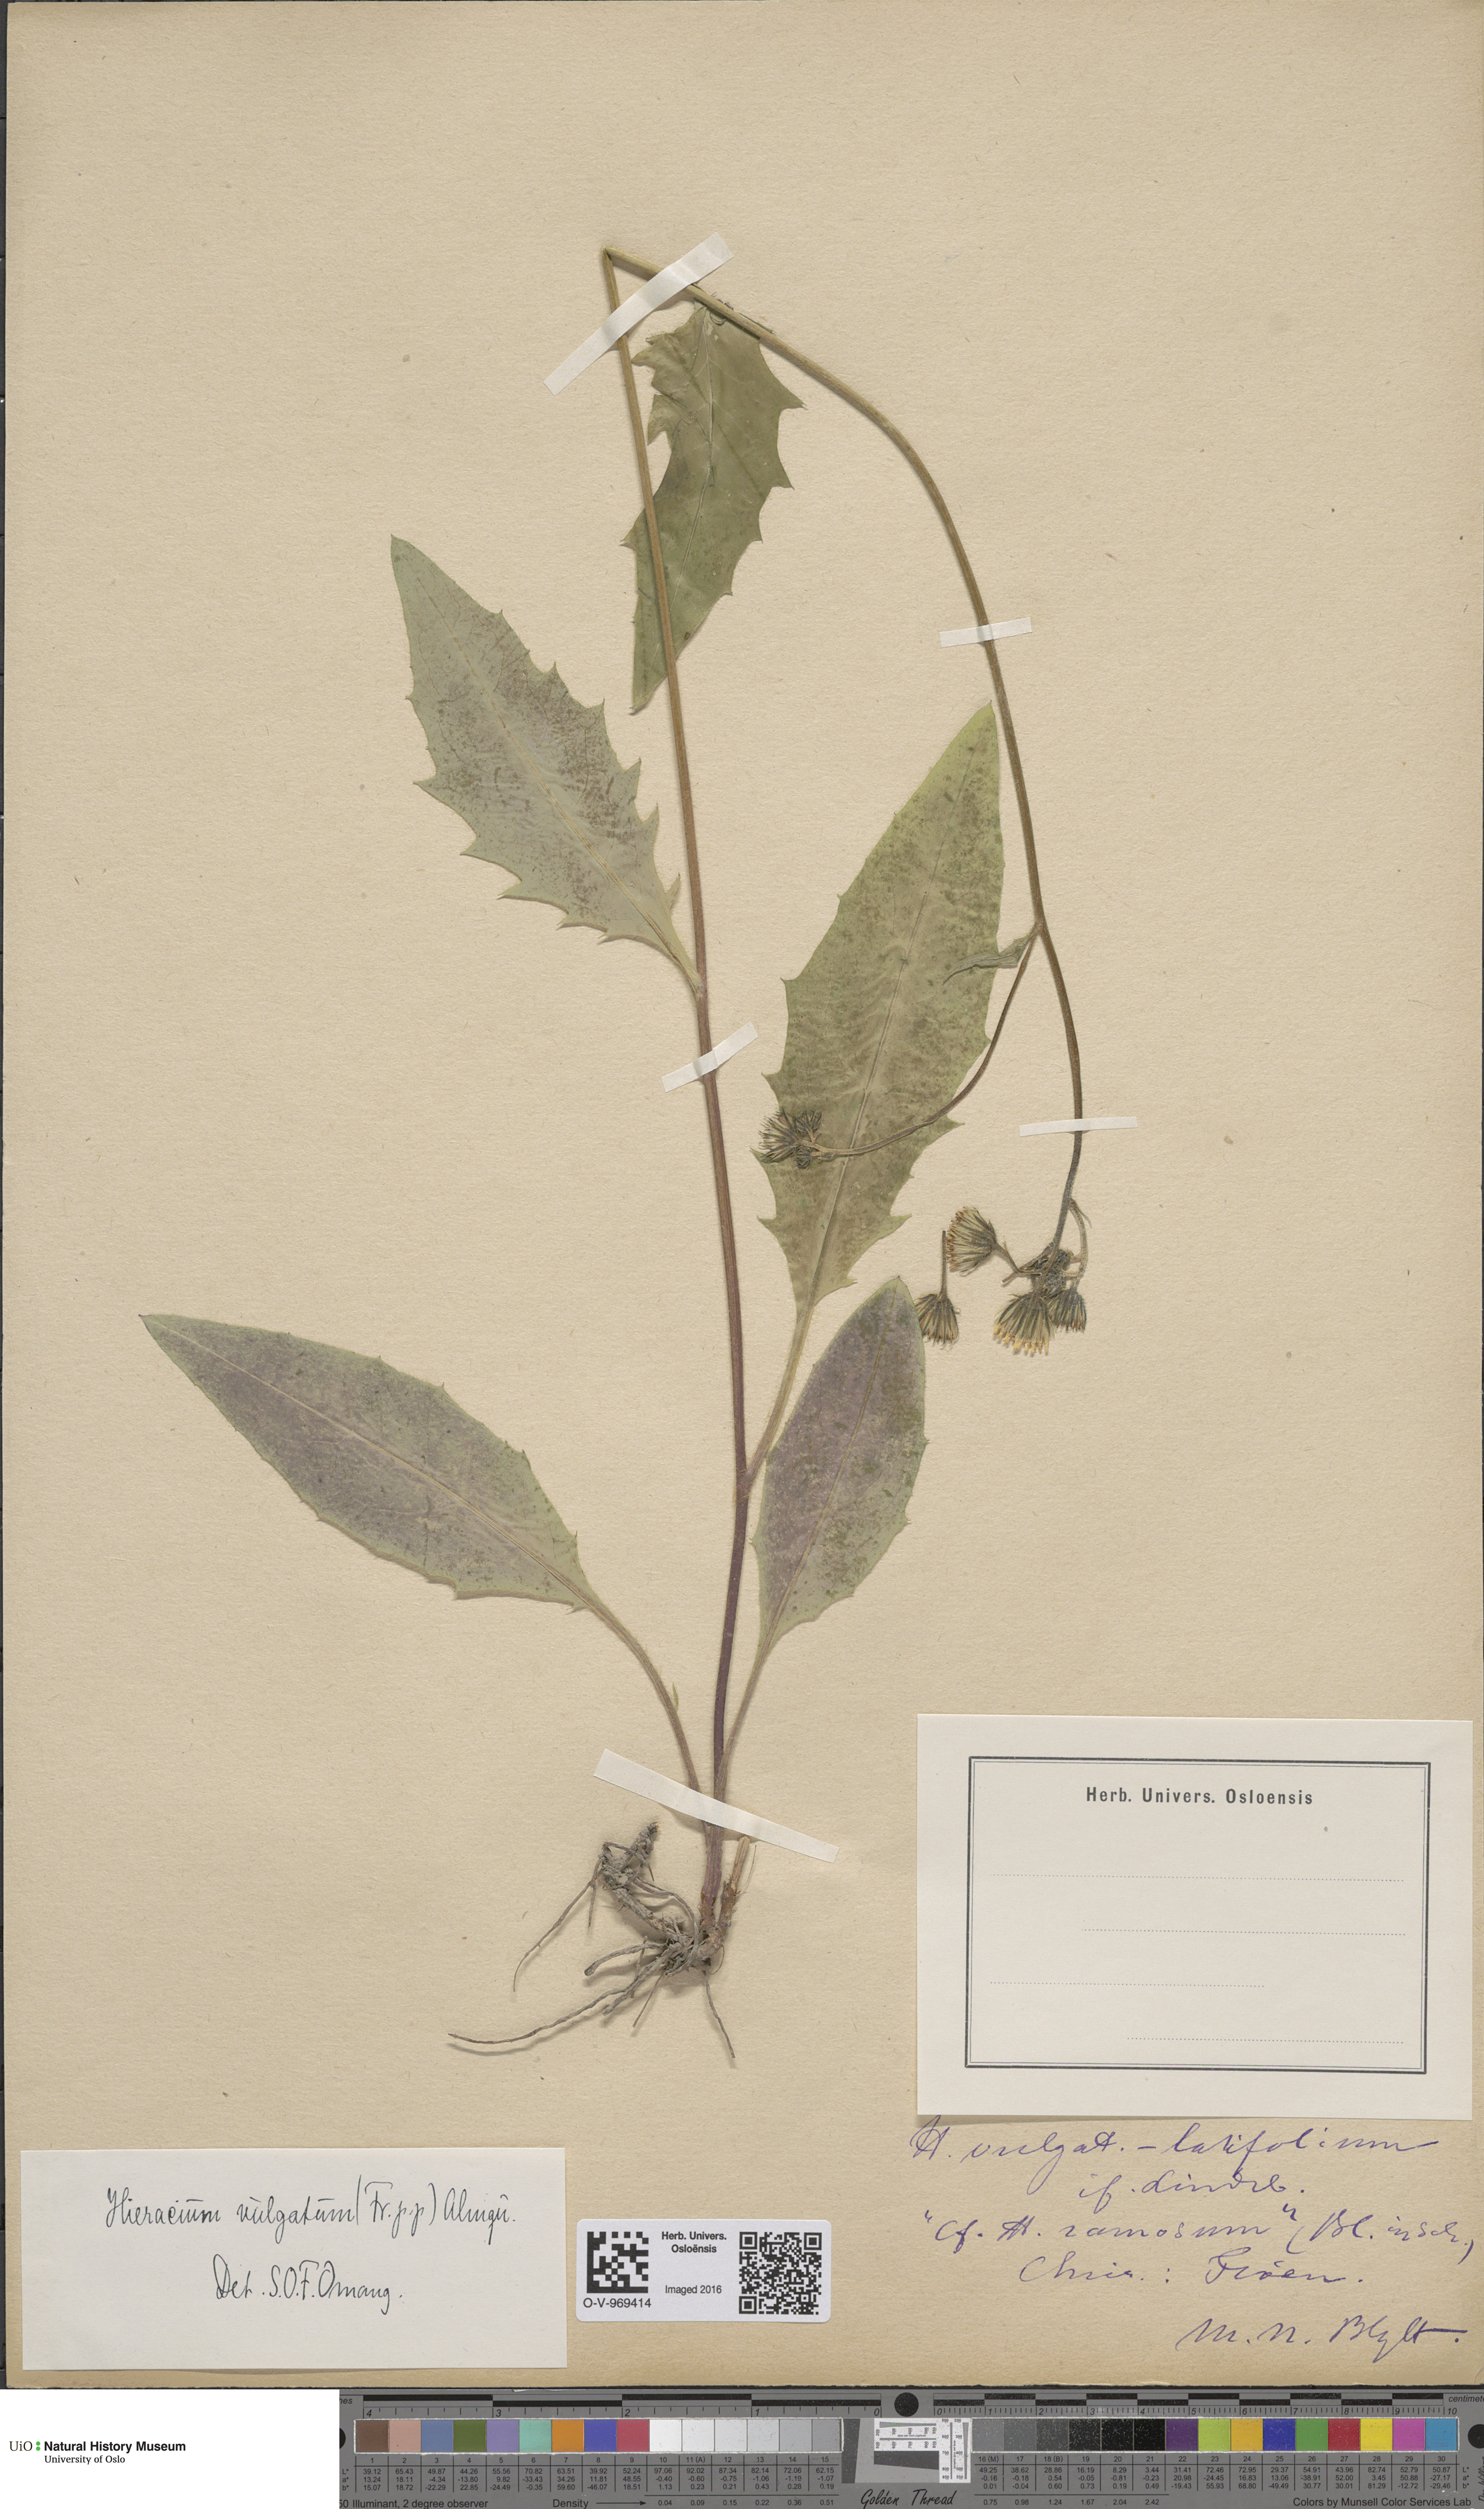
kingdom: Plantae
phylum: Tracheophyta
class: Magnoliopsida
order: Asterales
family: Asteraceae
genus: Hieracium
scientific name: Hieracium vulgatum
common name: Common hawkweed
